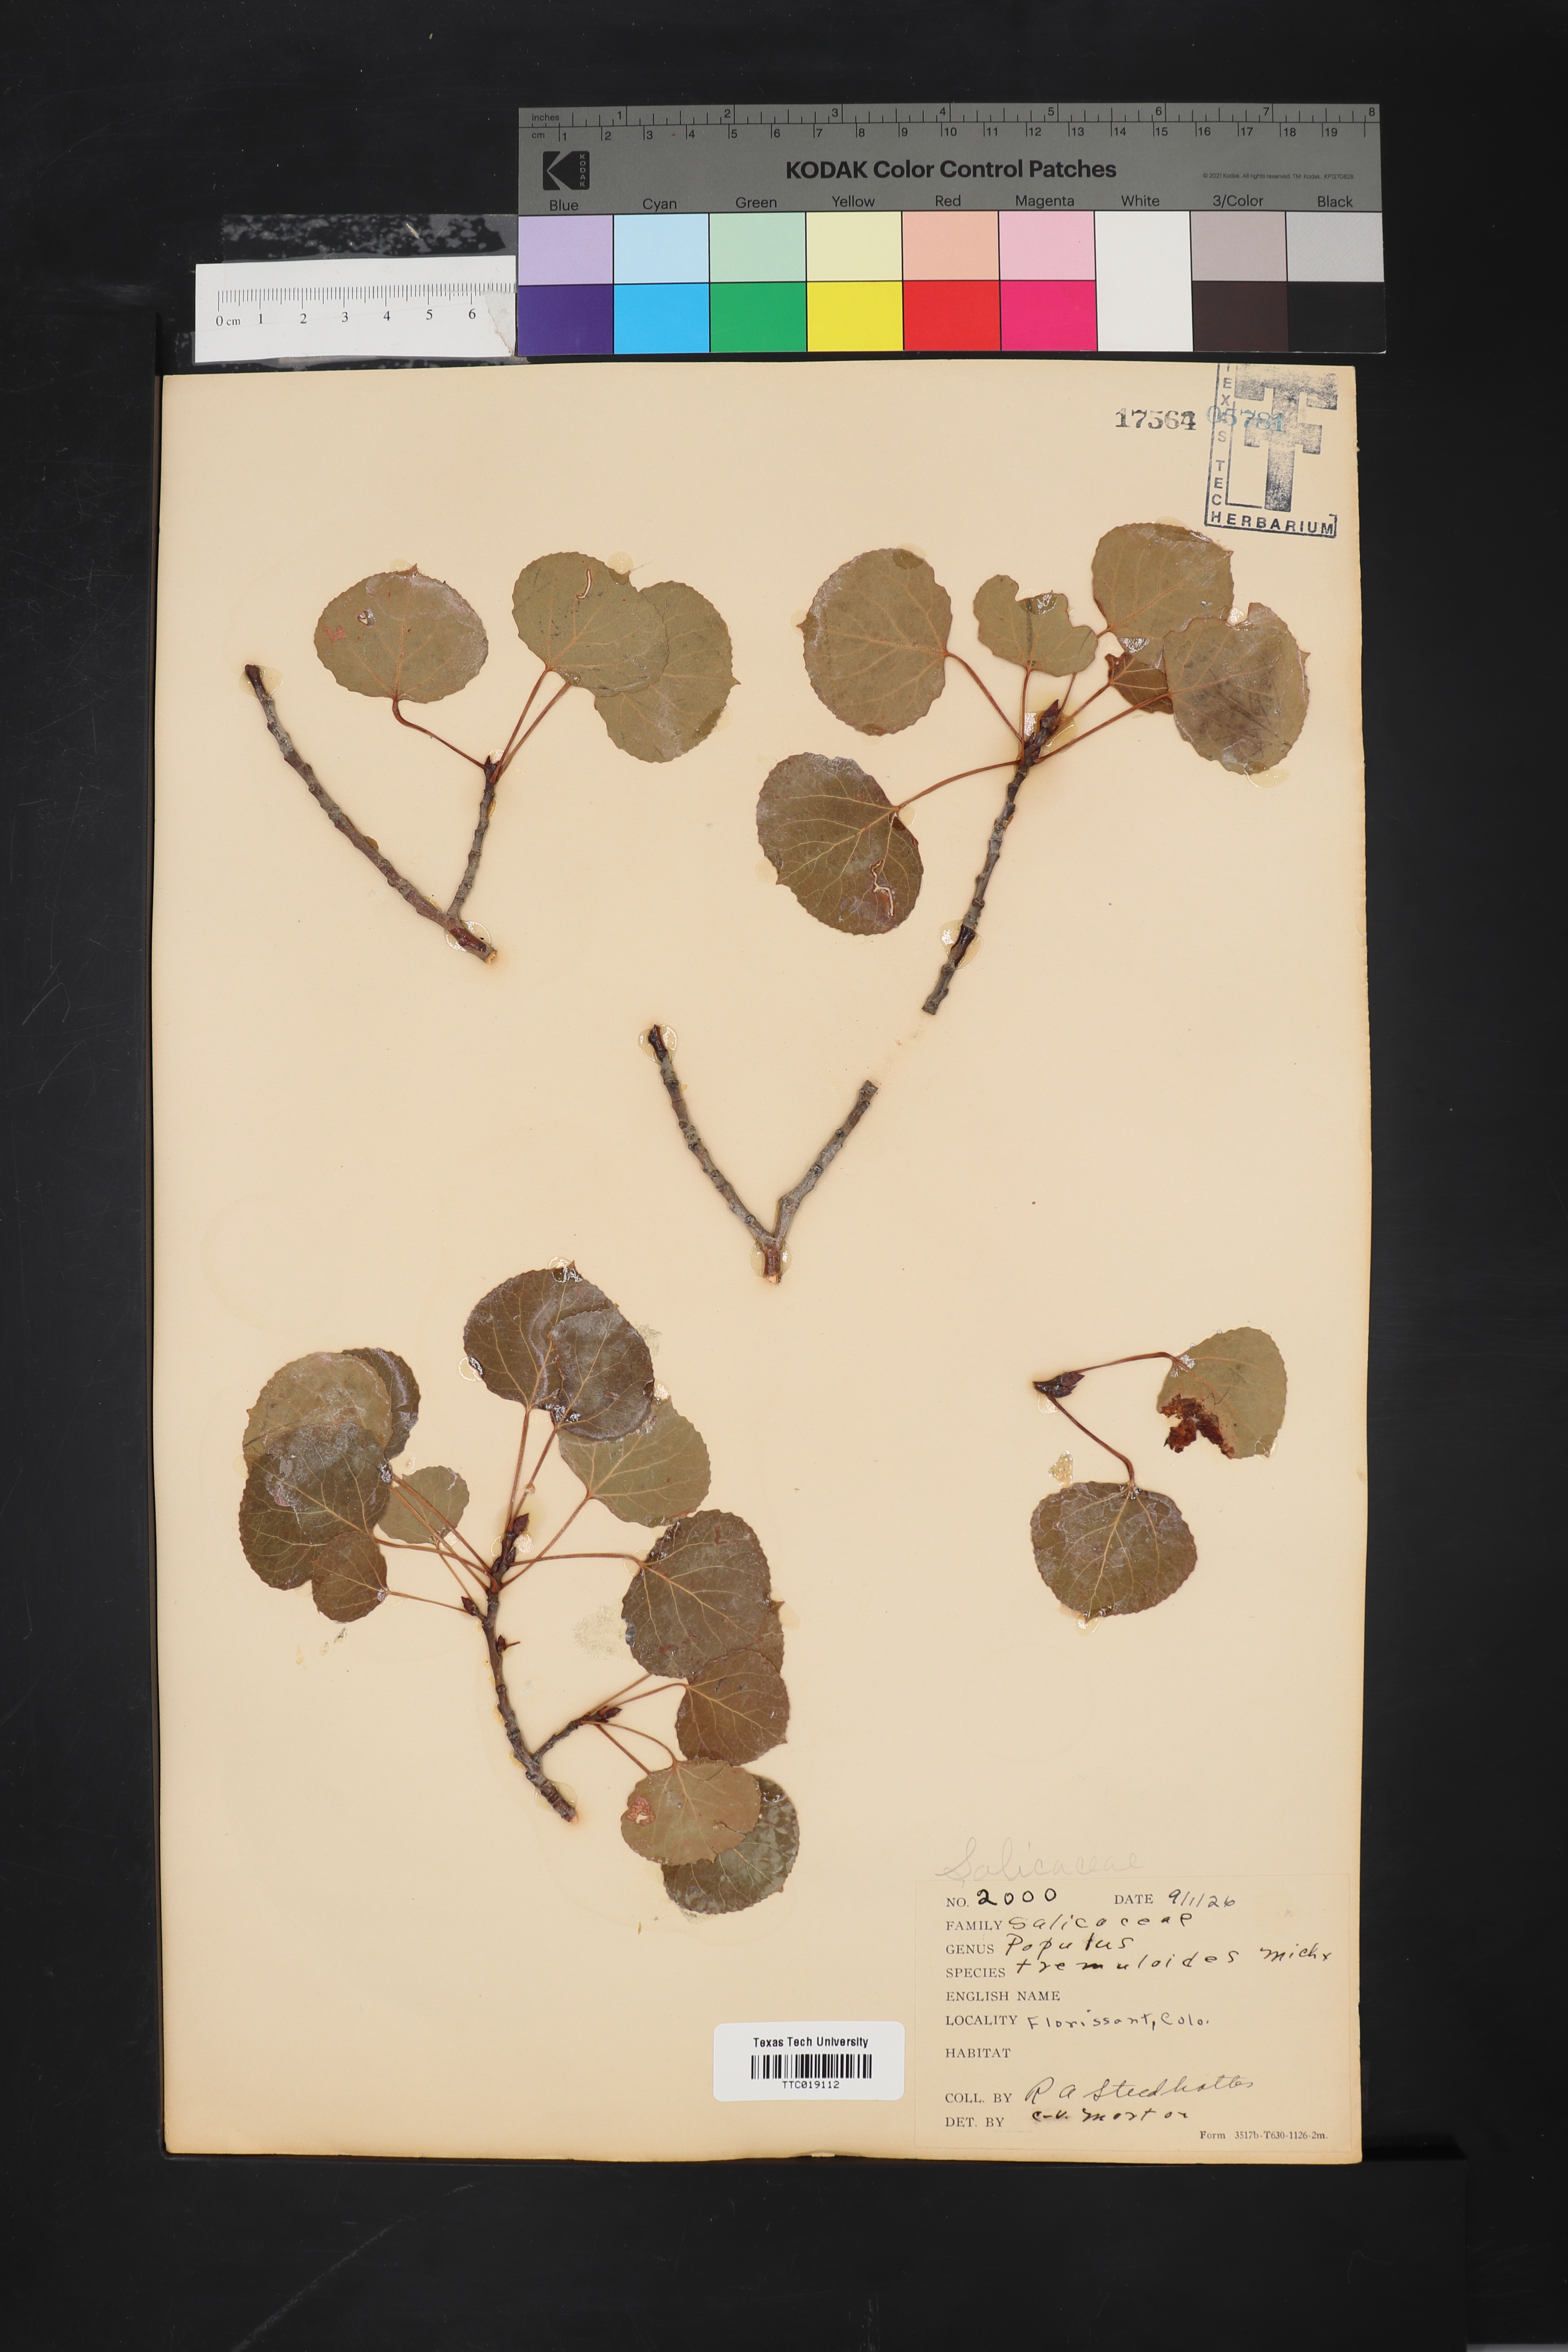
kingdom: Plantae
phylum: Tracheophyta
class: Magnoliopsida
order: Malpighiales
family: Salicaceae
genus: Populus
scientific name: Populus tremuloides
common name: Quaking aspen
